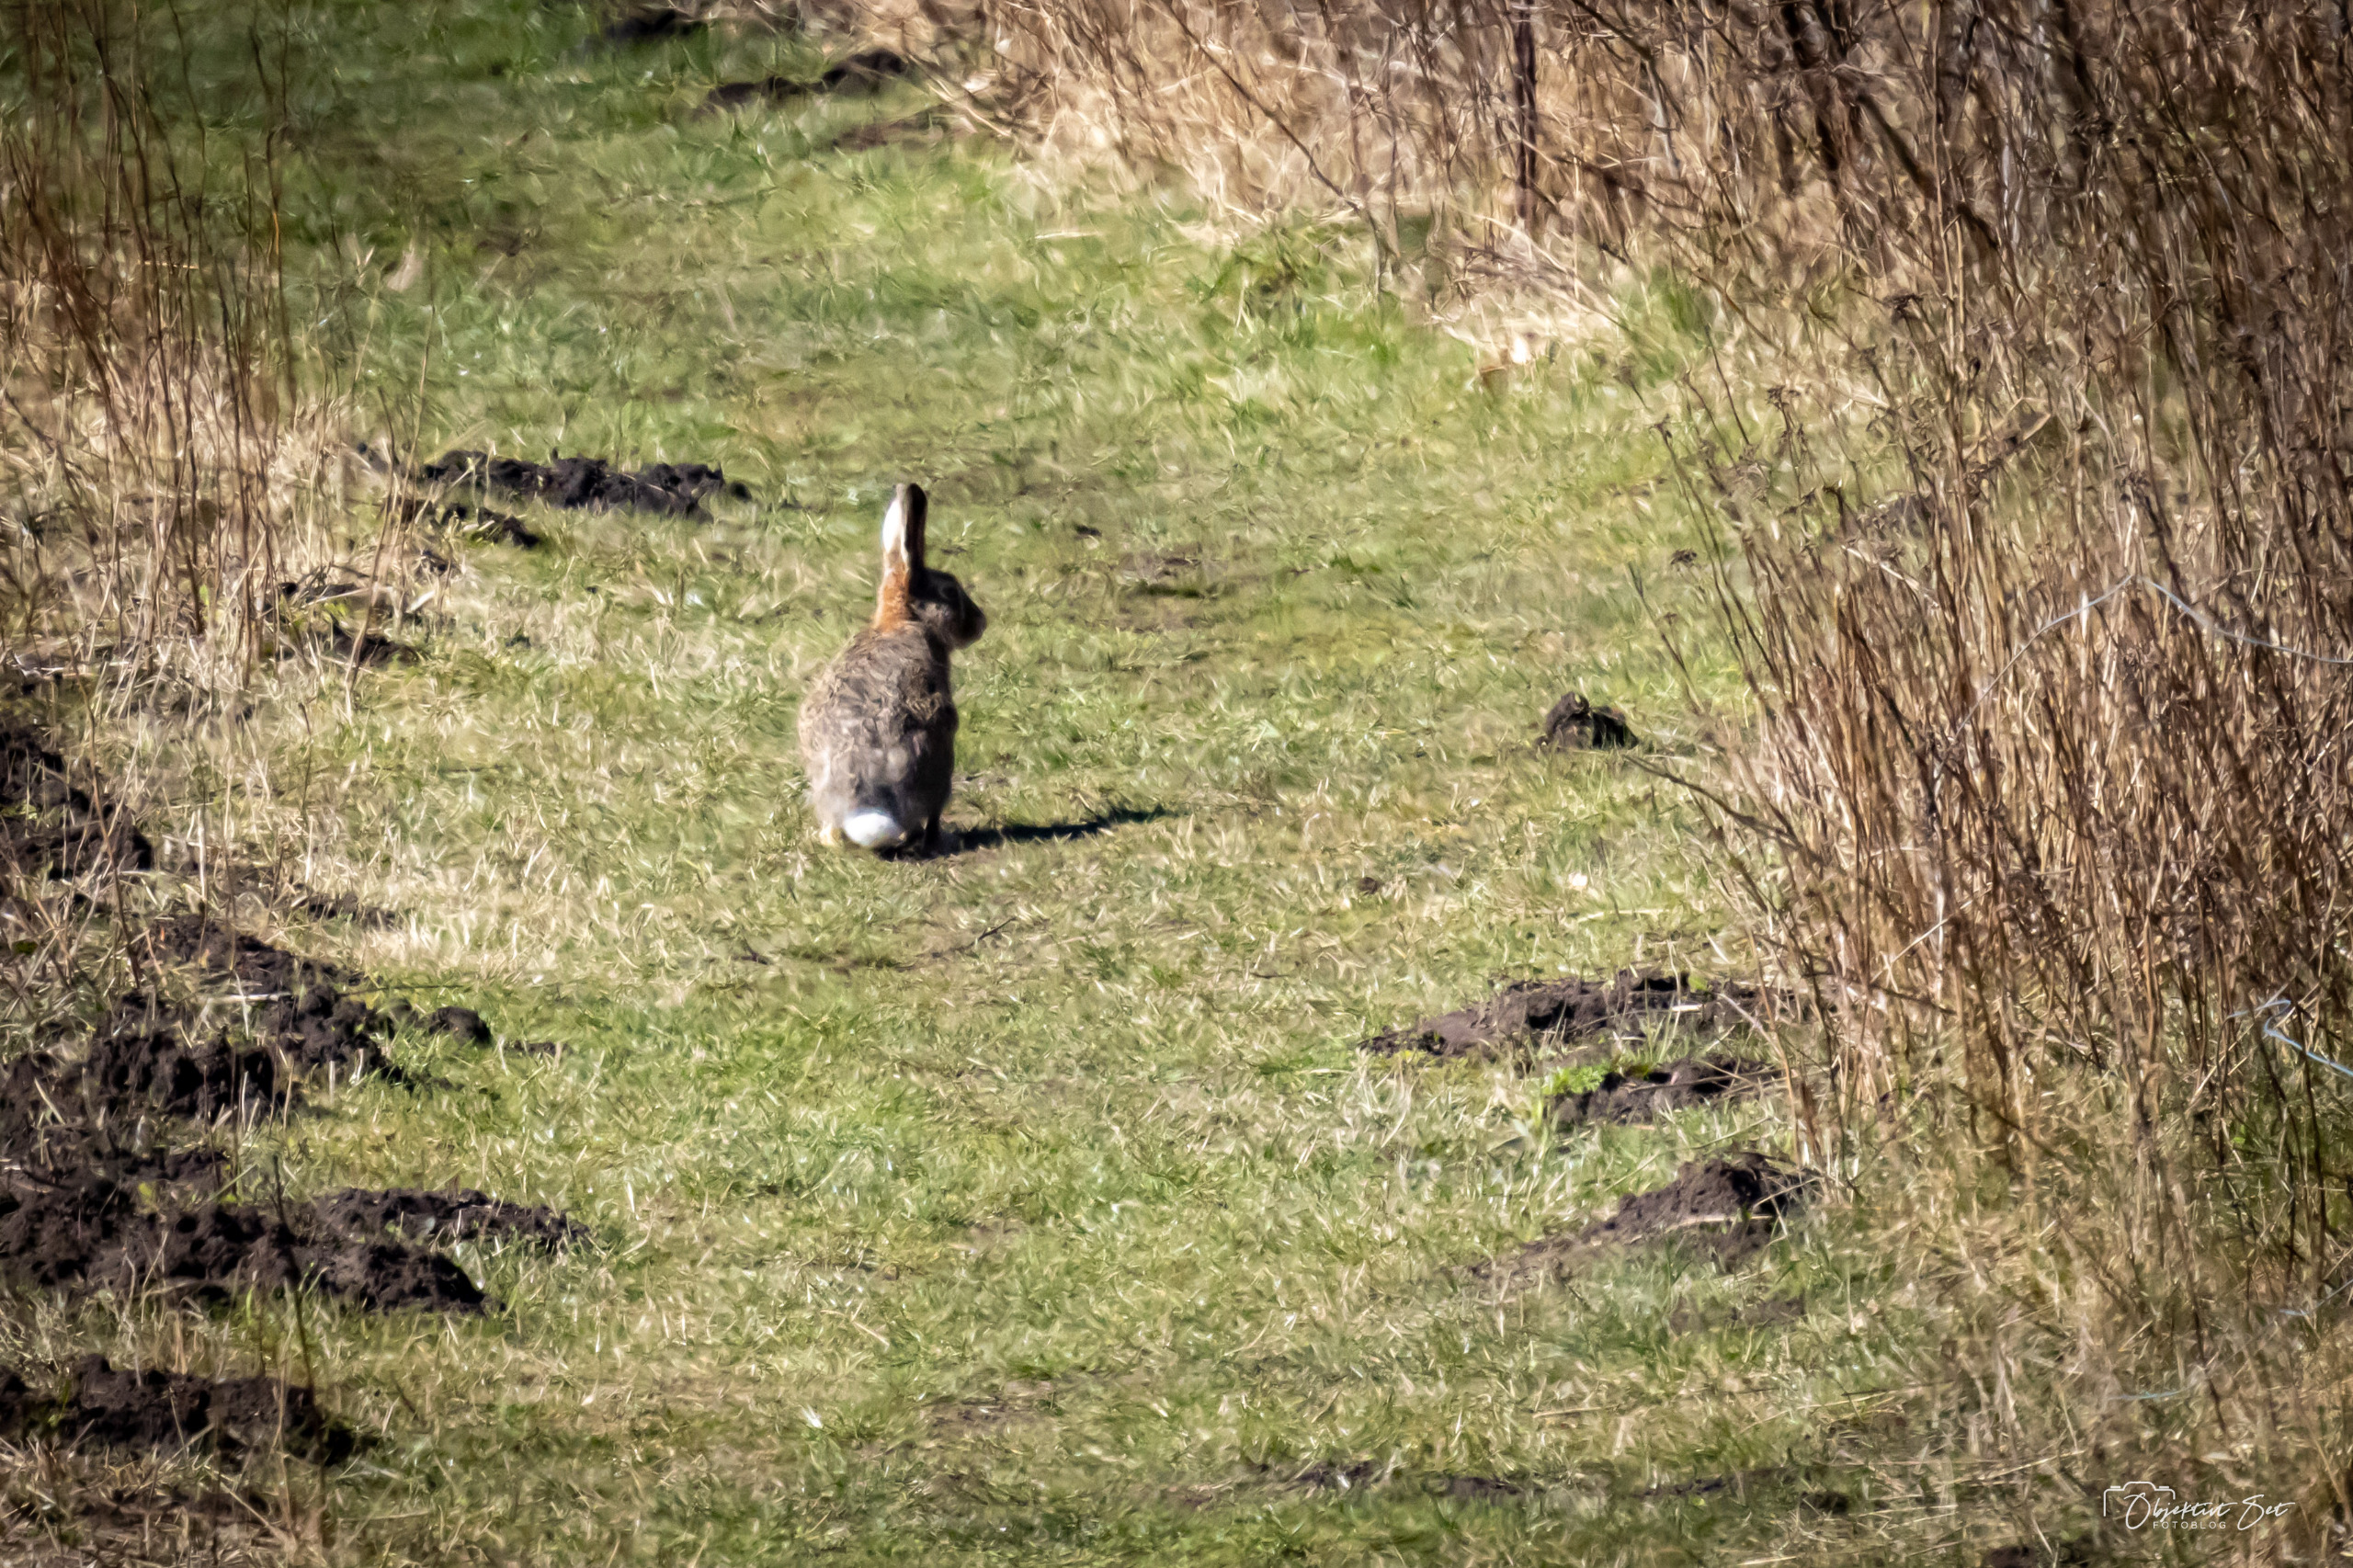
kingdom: Animalia
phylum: Chordata
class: Mammalia
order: Lagomorpha
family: Leporidae
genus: Lepus
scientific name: Lepus europaeus
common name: Hare
